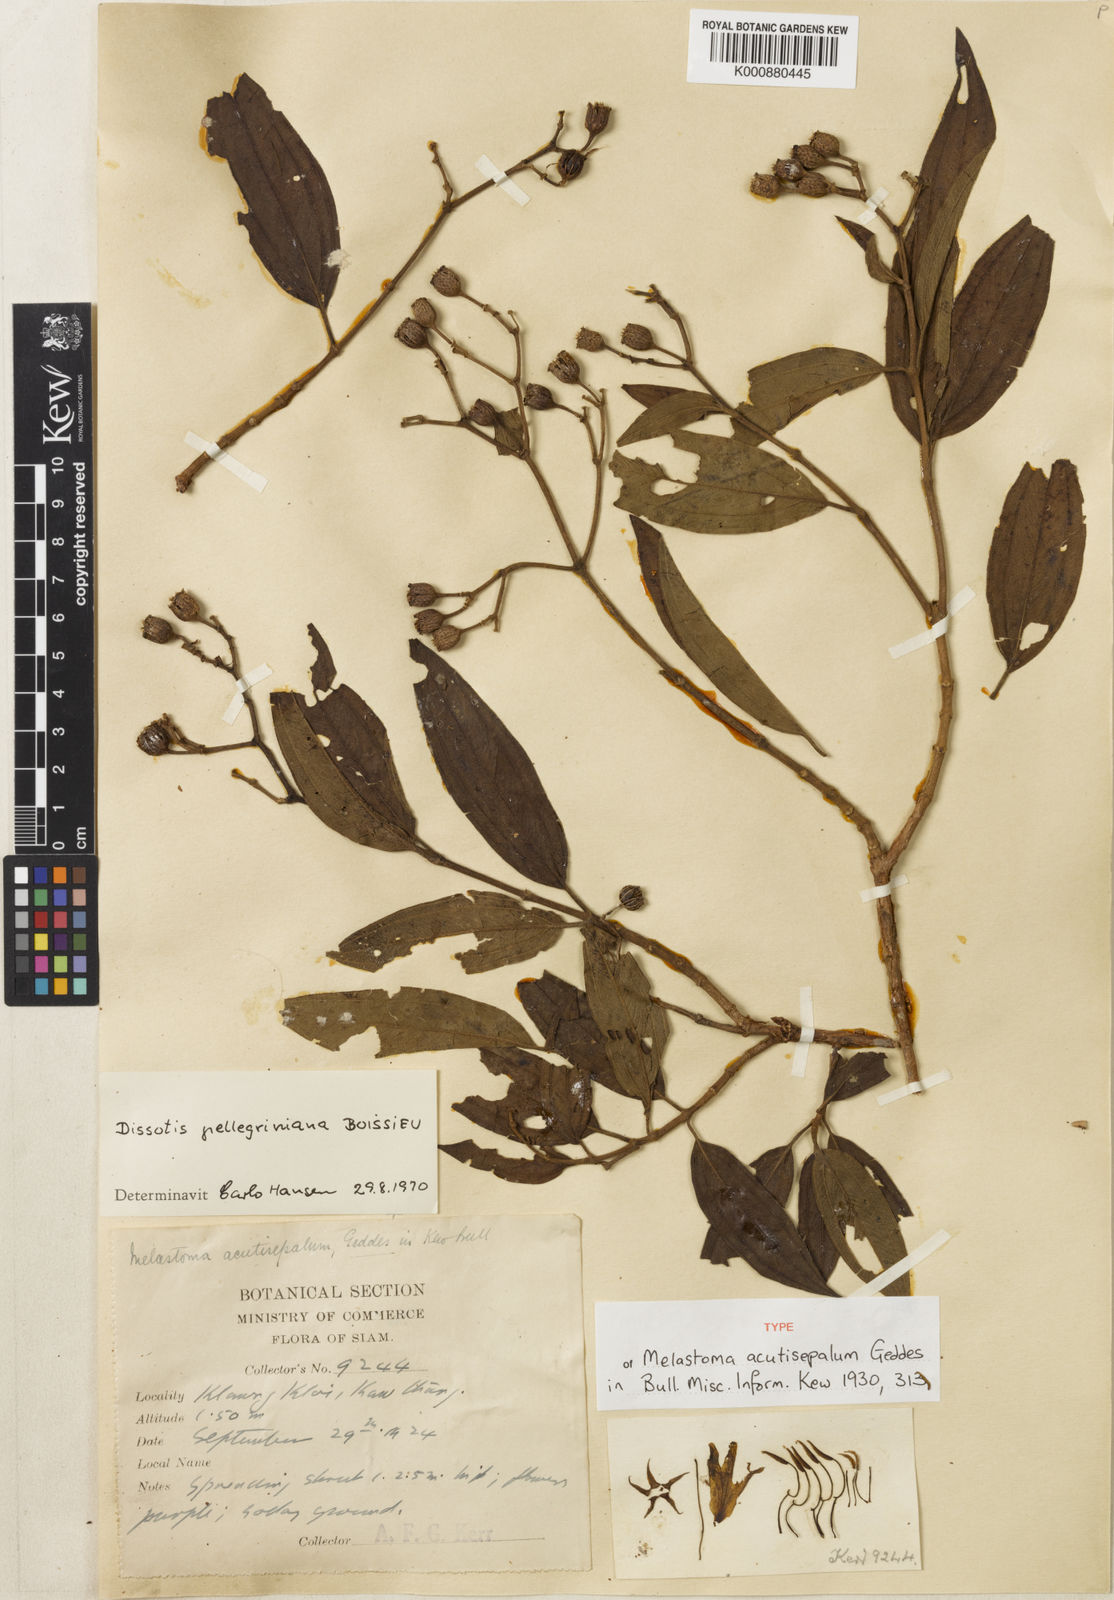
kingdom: Plantae
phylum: Tracheophyta
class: Magnoliopsida
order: Myrtales
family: Melastomataceae
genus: Melastoma
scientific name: Melastoma pellegrinianum
